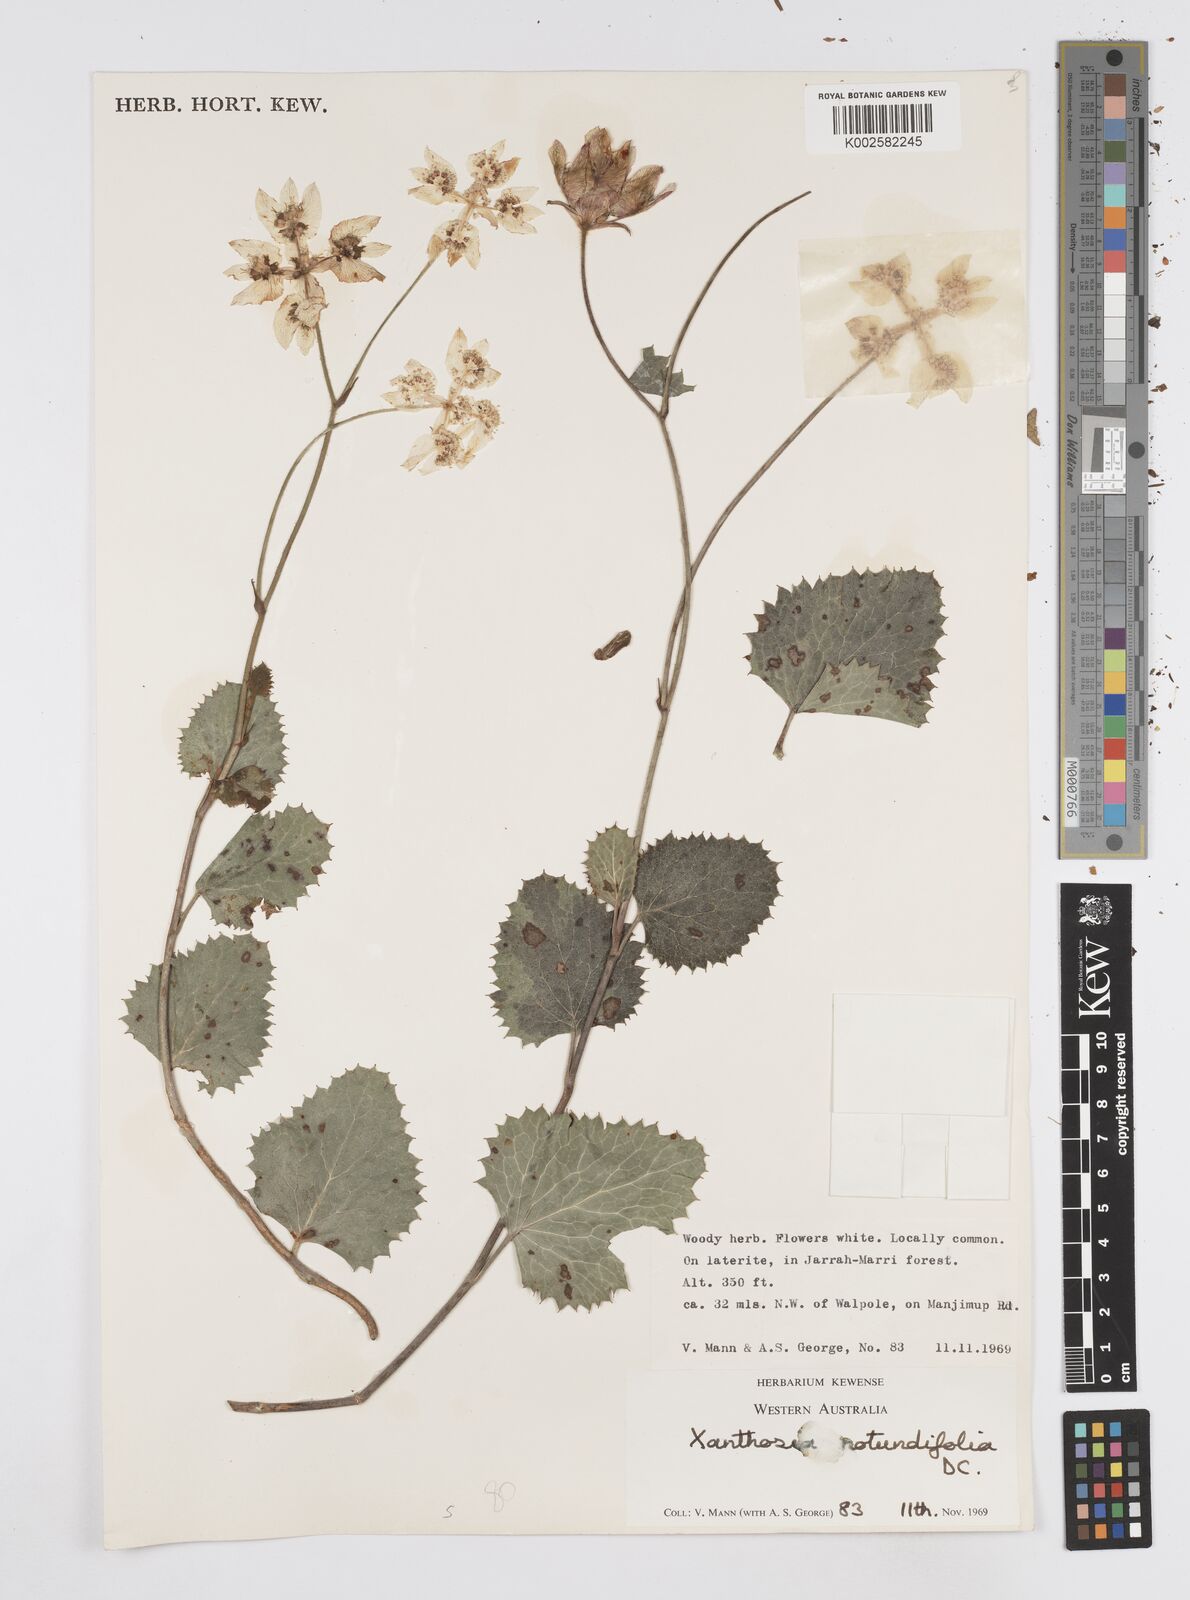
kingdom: Plantae
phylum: Tracheophyta
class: Magnoliopsida
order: Apiales
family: Apiaceae
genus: Xanthosia
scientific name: Xanthosia rotundifolia
